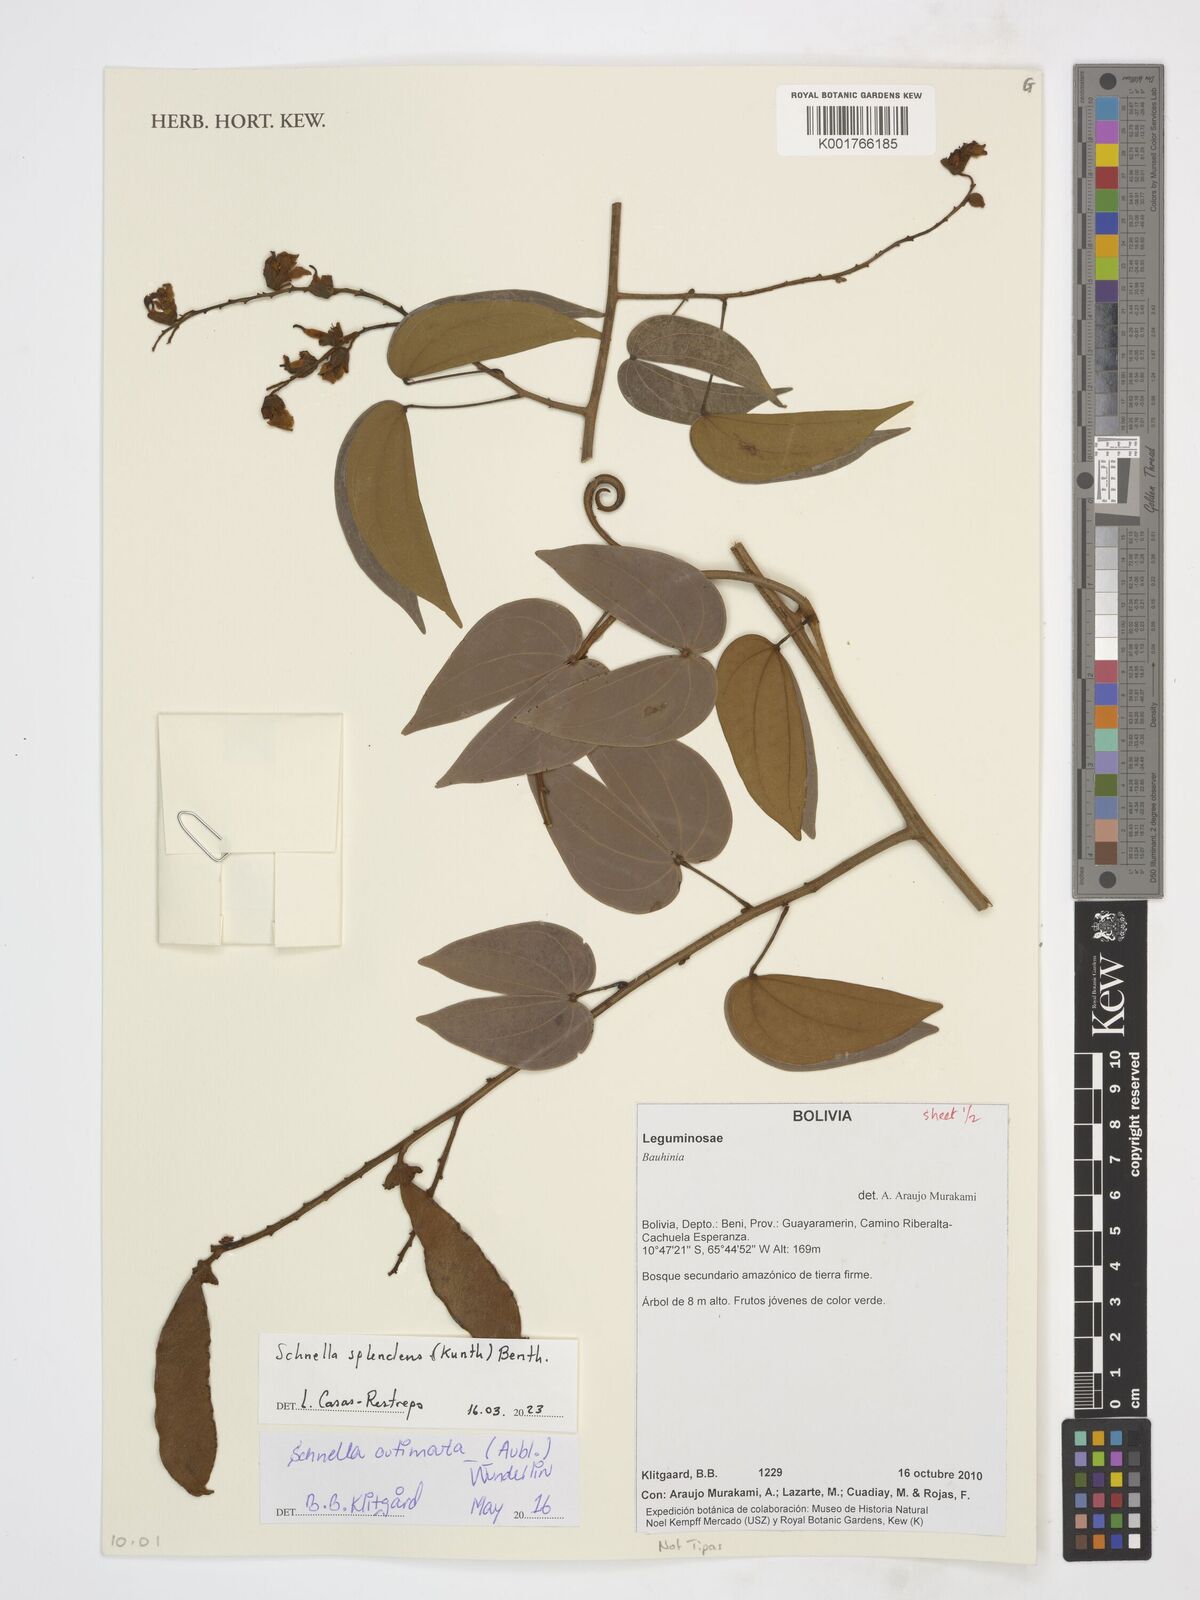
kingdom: Plantae
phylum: Tracheophyta
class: Magnoliopsida
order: Fabales
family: Fabaceae
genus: Schnella
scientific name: Schnella splendens
